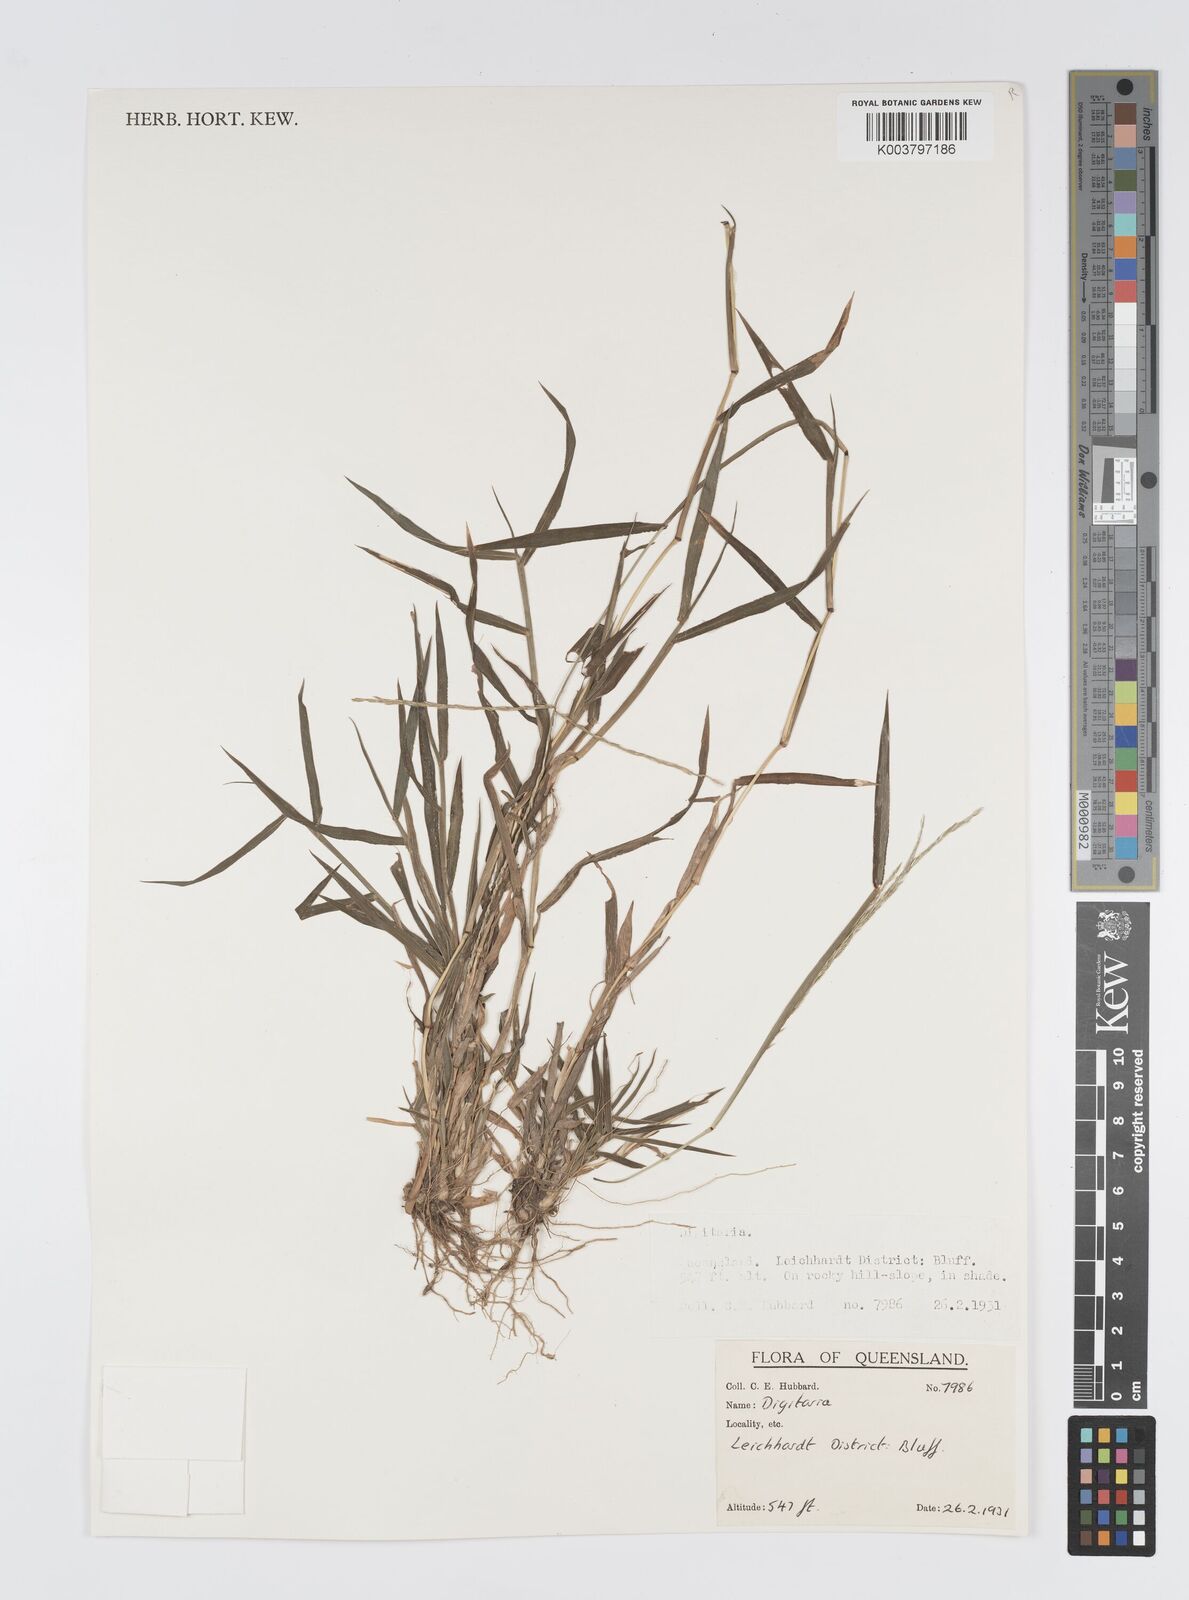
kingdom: Plantae
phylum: Tracheophyta
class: Liliopsida
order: Poales
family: Poaceae
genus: Digitaria
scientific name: Digitaria spec
